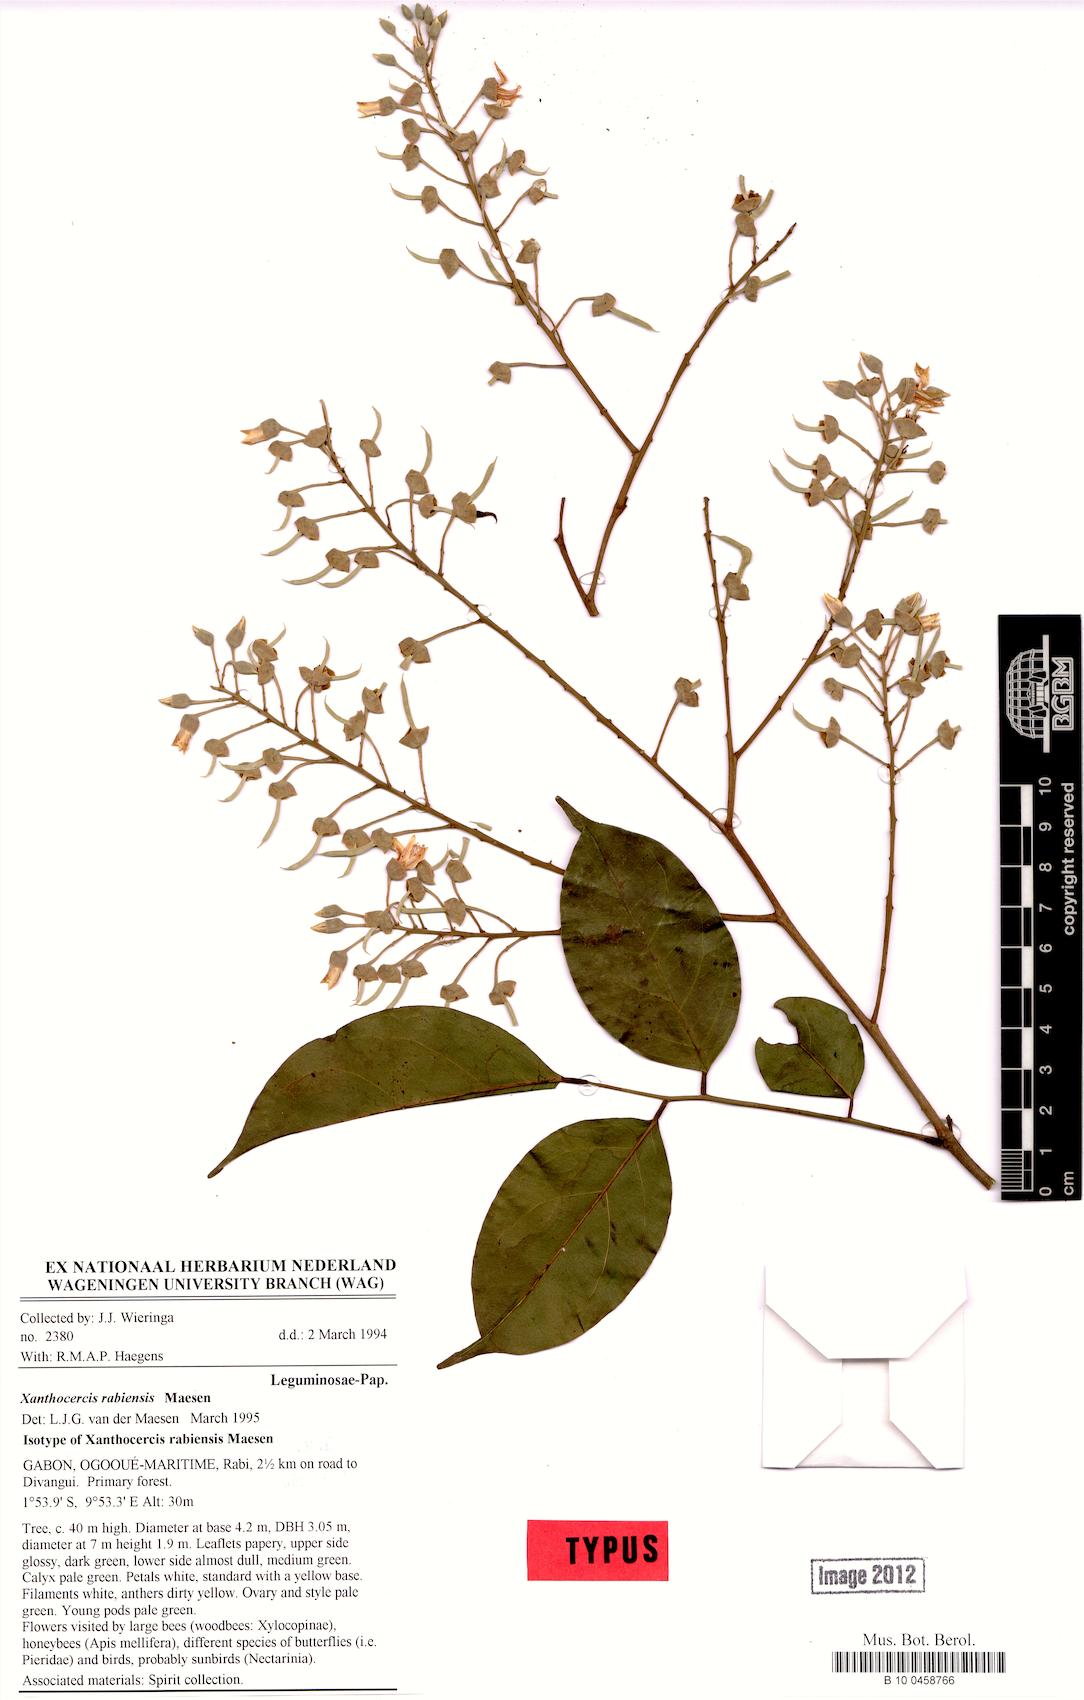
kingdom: Plantae
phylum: Tracheophyta
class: Magnoliopsida
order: Fabales
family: Fabaceae
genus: Xanthocercis
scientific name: Xanthocercis rabiensis
